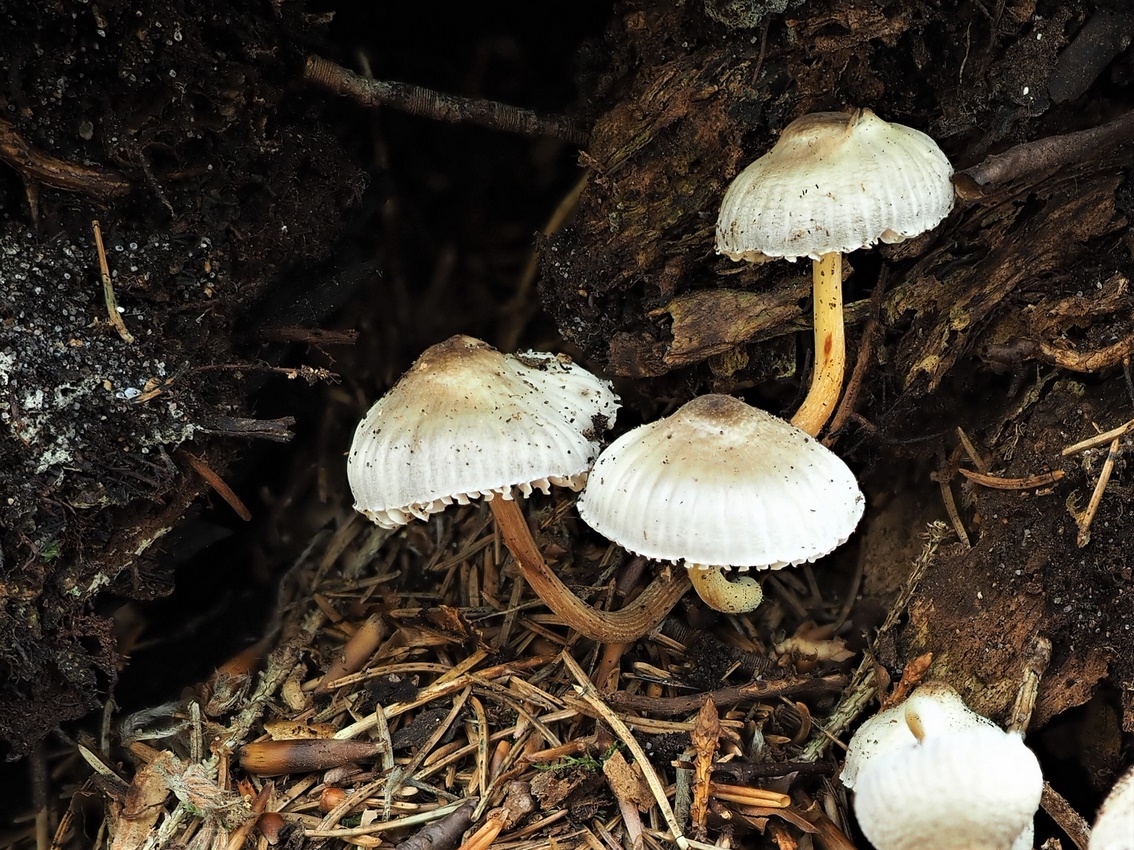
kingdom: Fungi
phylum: Basidiomycota
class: Agaricomycetes
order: Agaricales
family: Mycenaceae
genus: Mycena
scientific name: Mycena inclinata
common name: nikkende huesvamp
